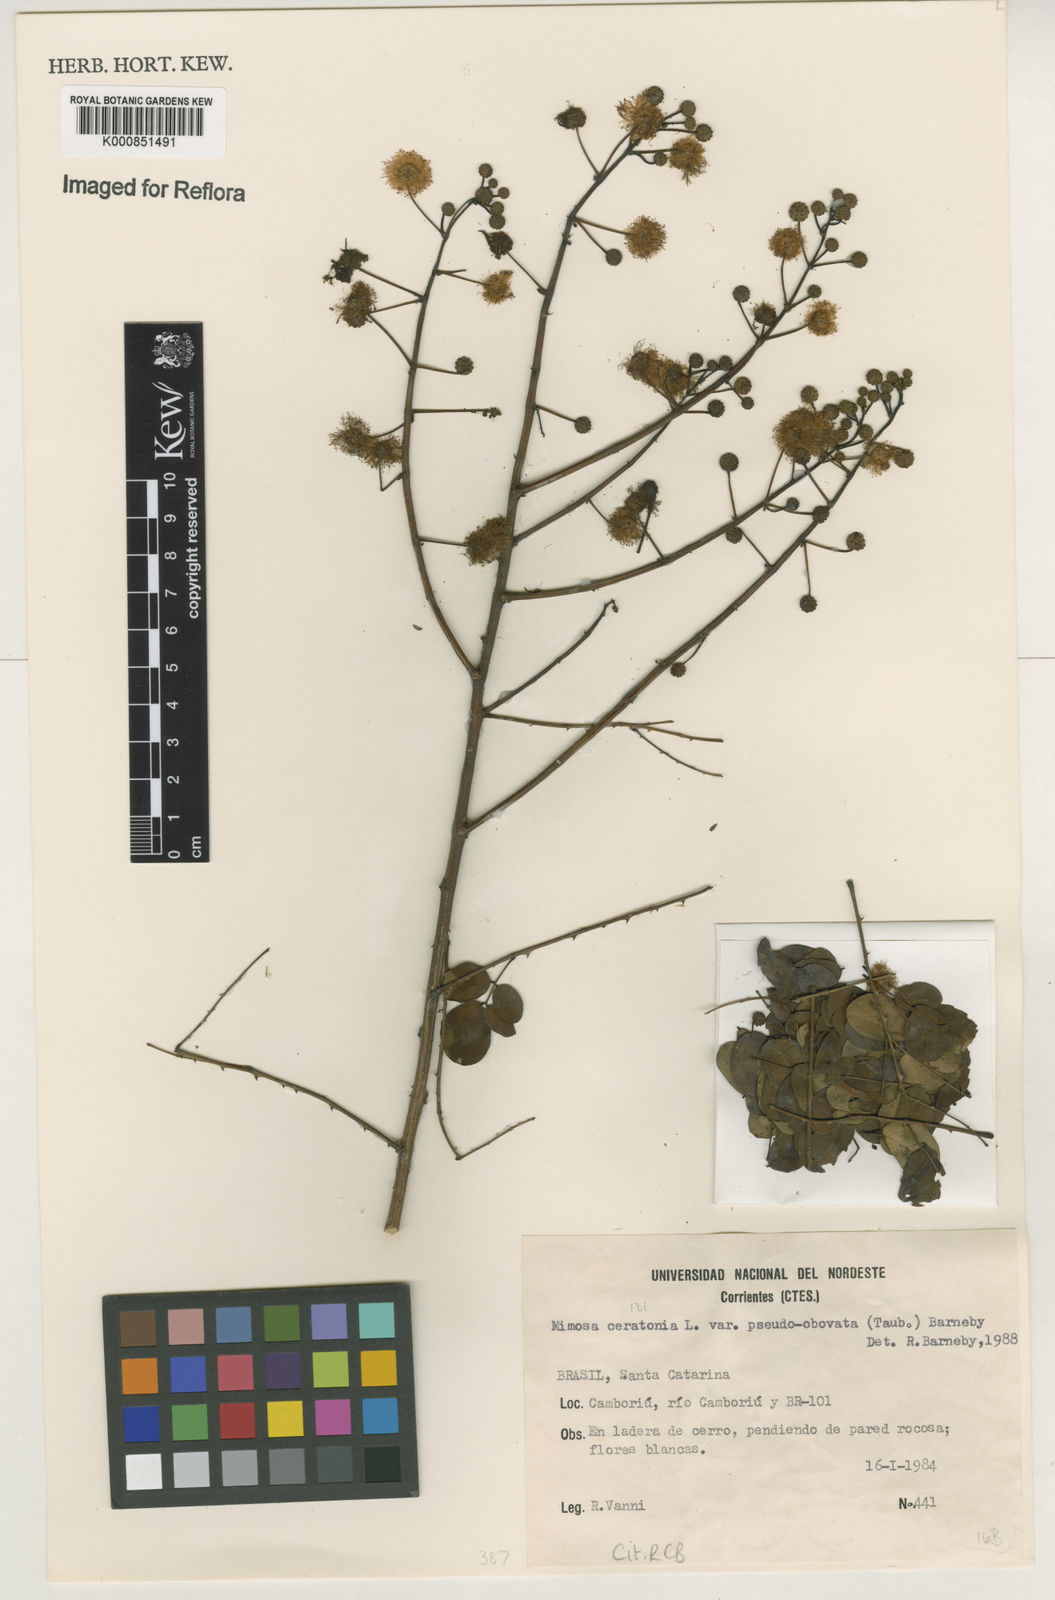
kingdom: Plantae
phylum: Tracheophyta
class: Magnoliopsida
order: Fabales
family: Fabaceae
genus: Mimosa
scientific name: Mimosa ceratonia
